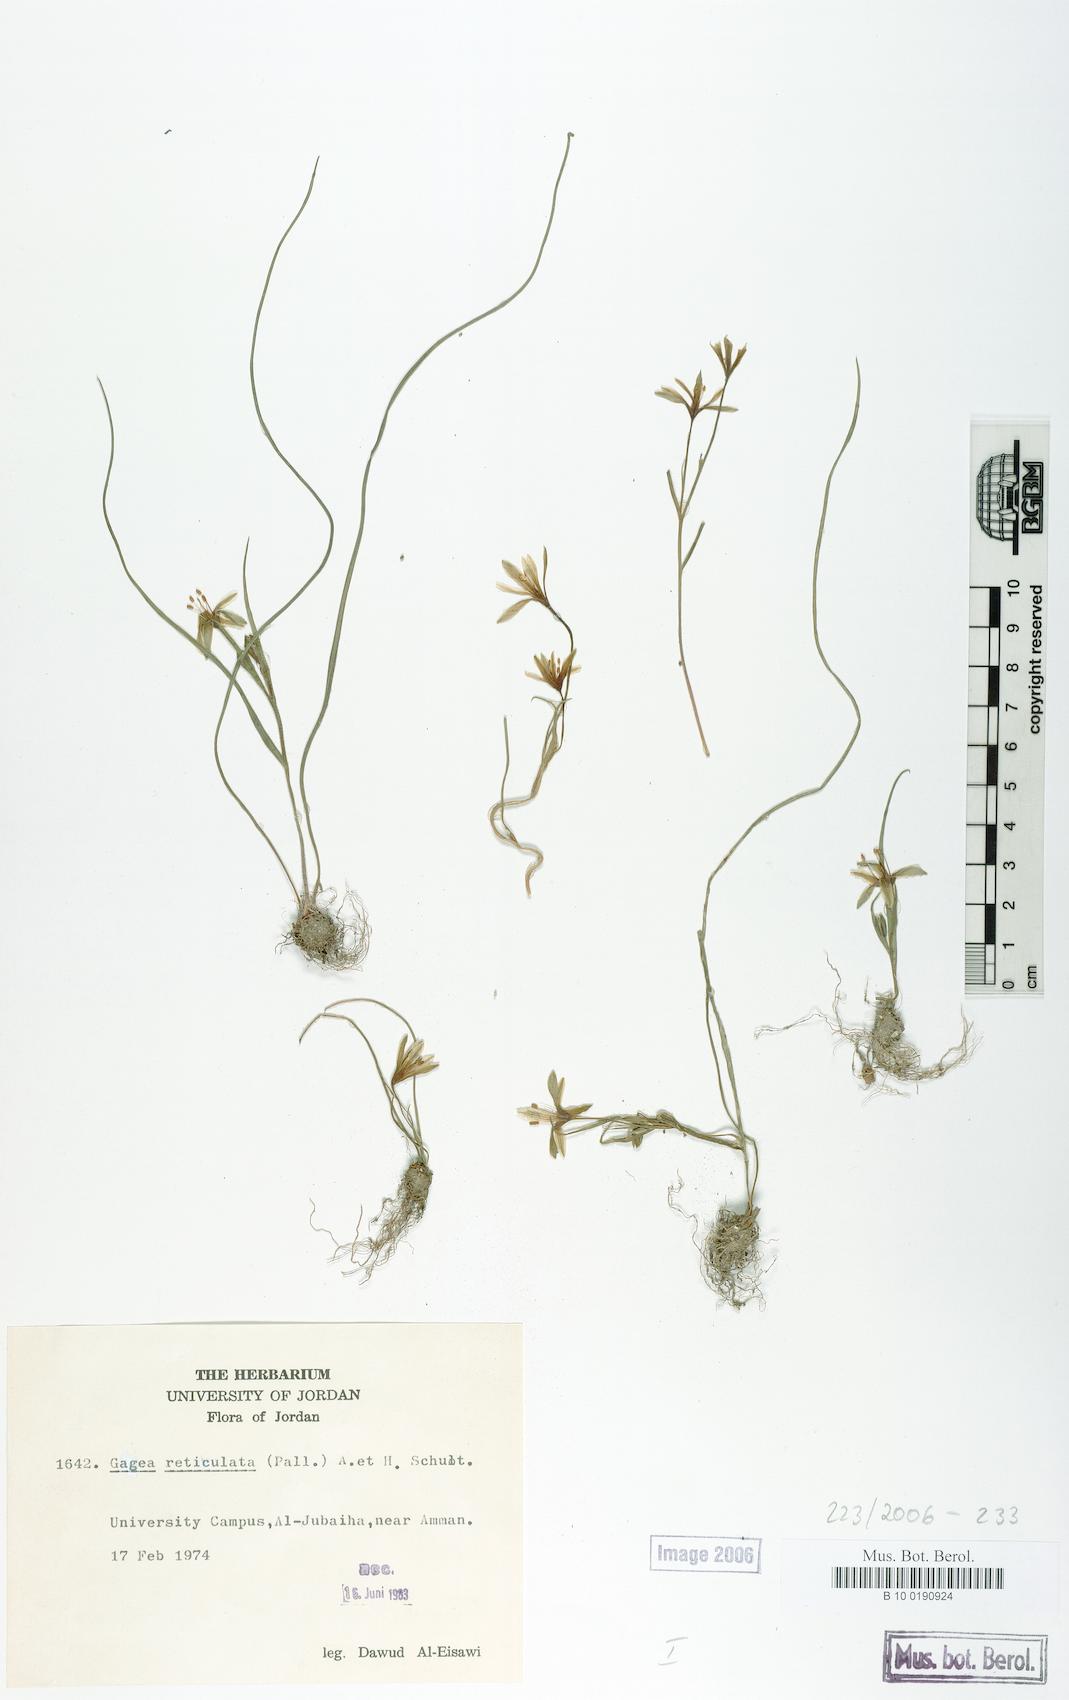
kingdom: Plantae
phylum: Tracheophyta
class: Liliopsida
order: Liliales
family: Liliaceae
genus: Gagea
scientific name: Gagea reticulata
